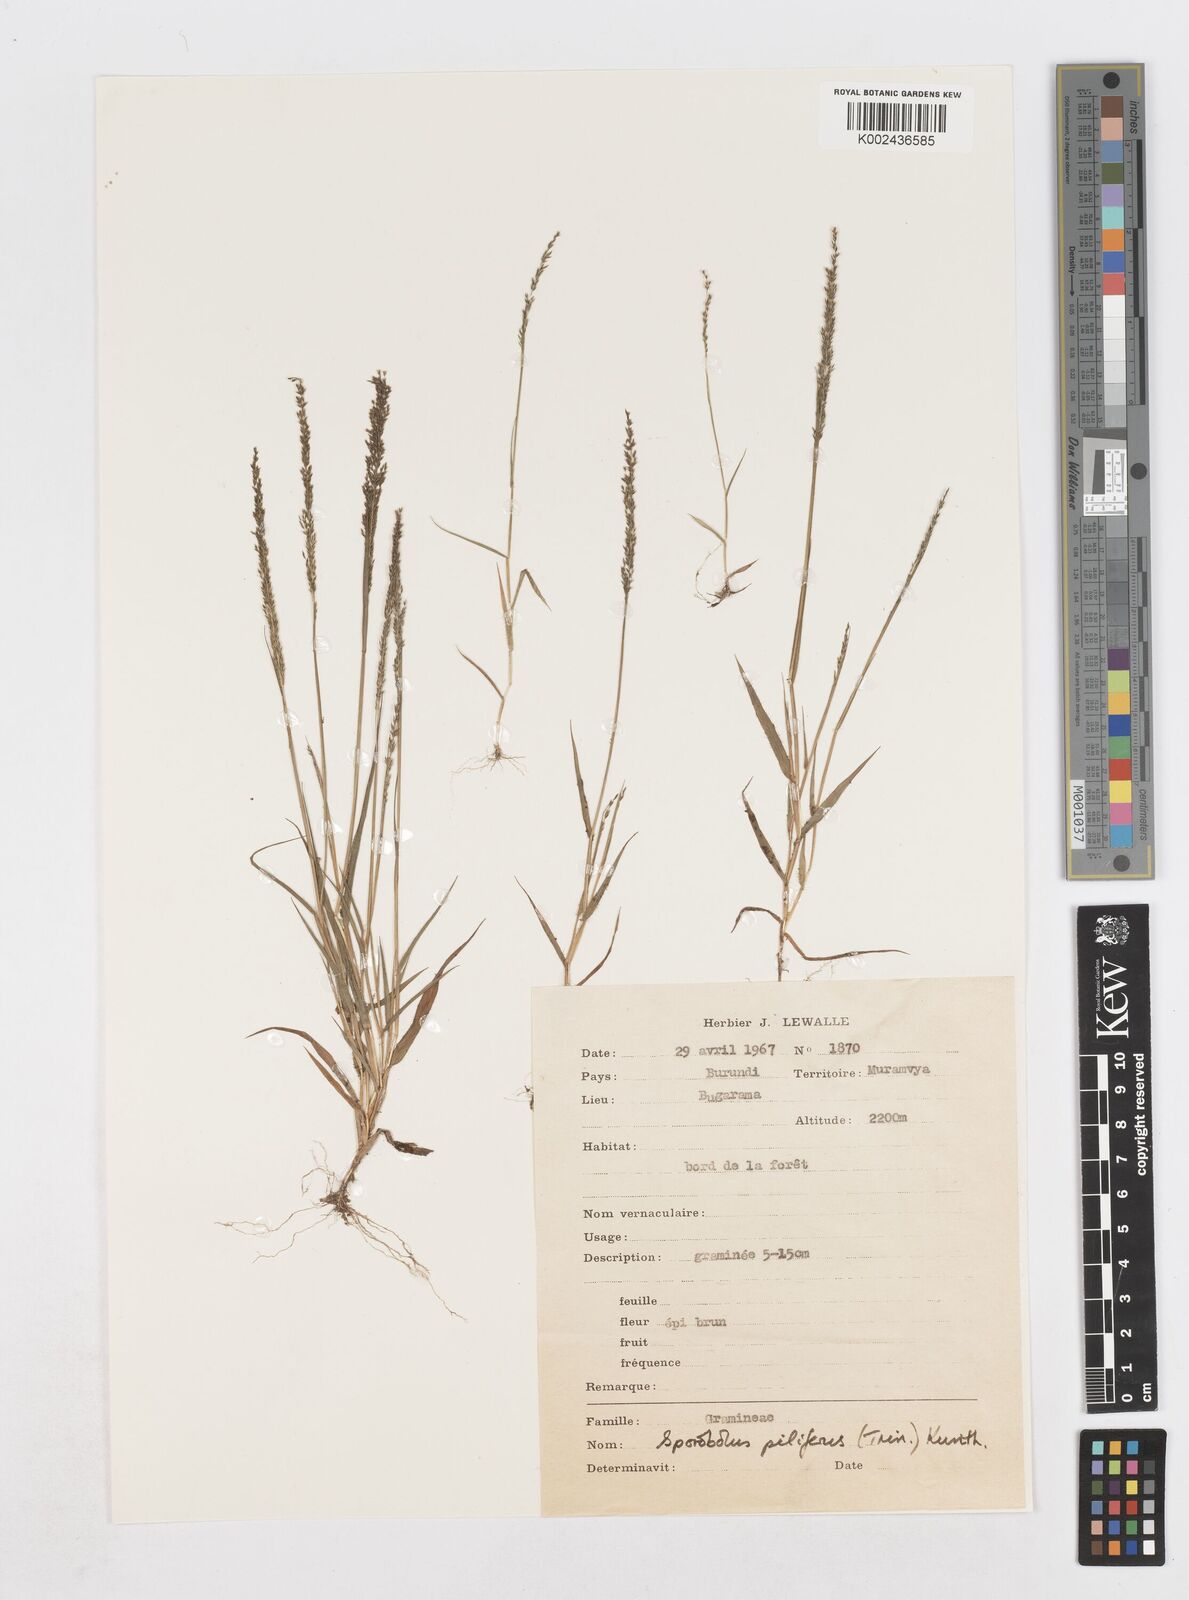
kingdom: Plantae
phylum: Tracheophyta
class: Liliopsida
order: Poales
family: Poaceae
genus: Sporobolus
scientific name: Sporobolus pilifer
